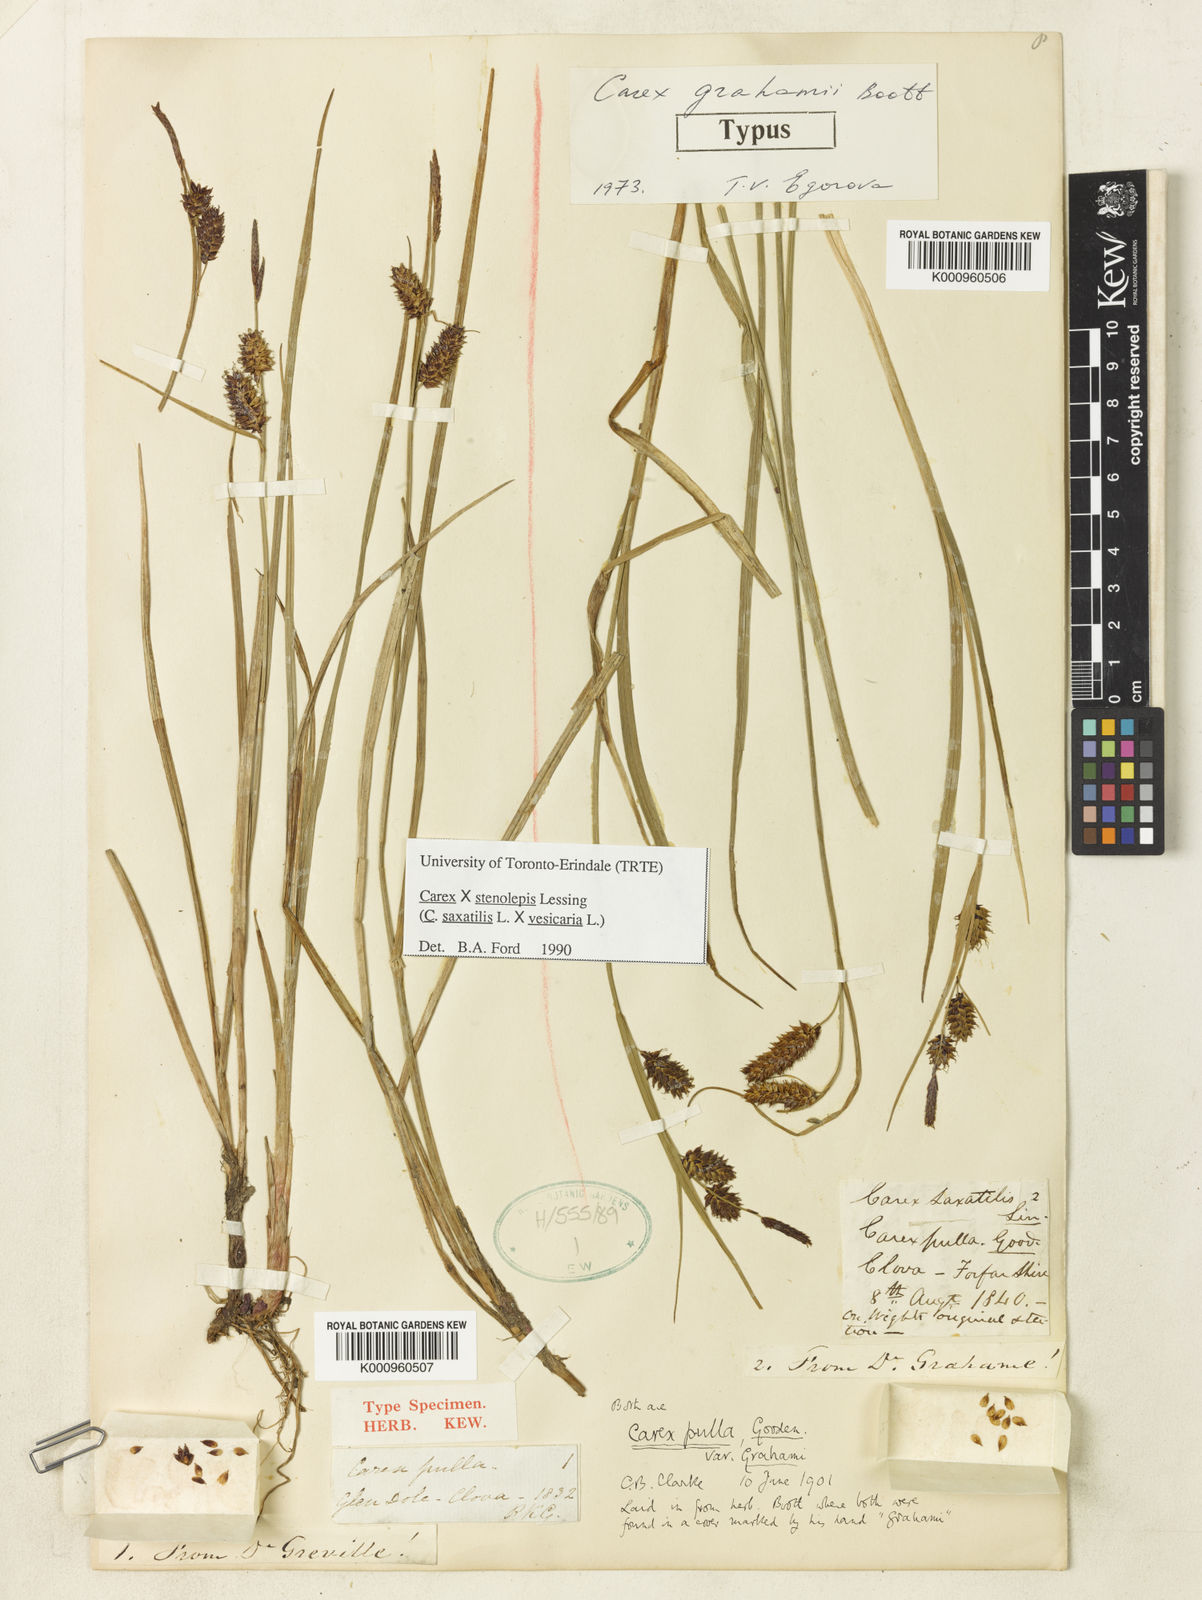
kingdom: Plantae
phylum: Tracheophyta
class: Liliopsida
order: Poales
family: Cyperaceae
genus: Carex
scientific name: Carex vesicaria
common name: Bladder-sedge
